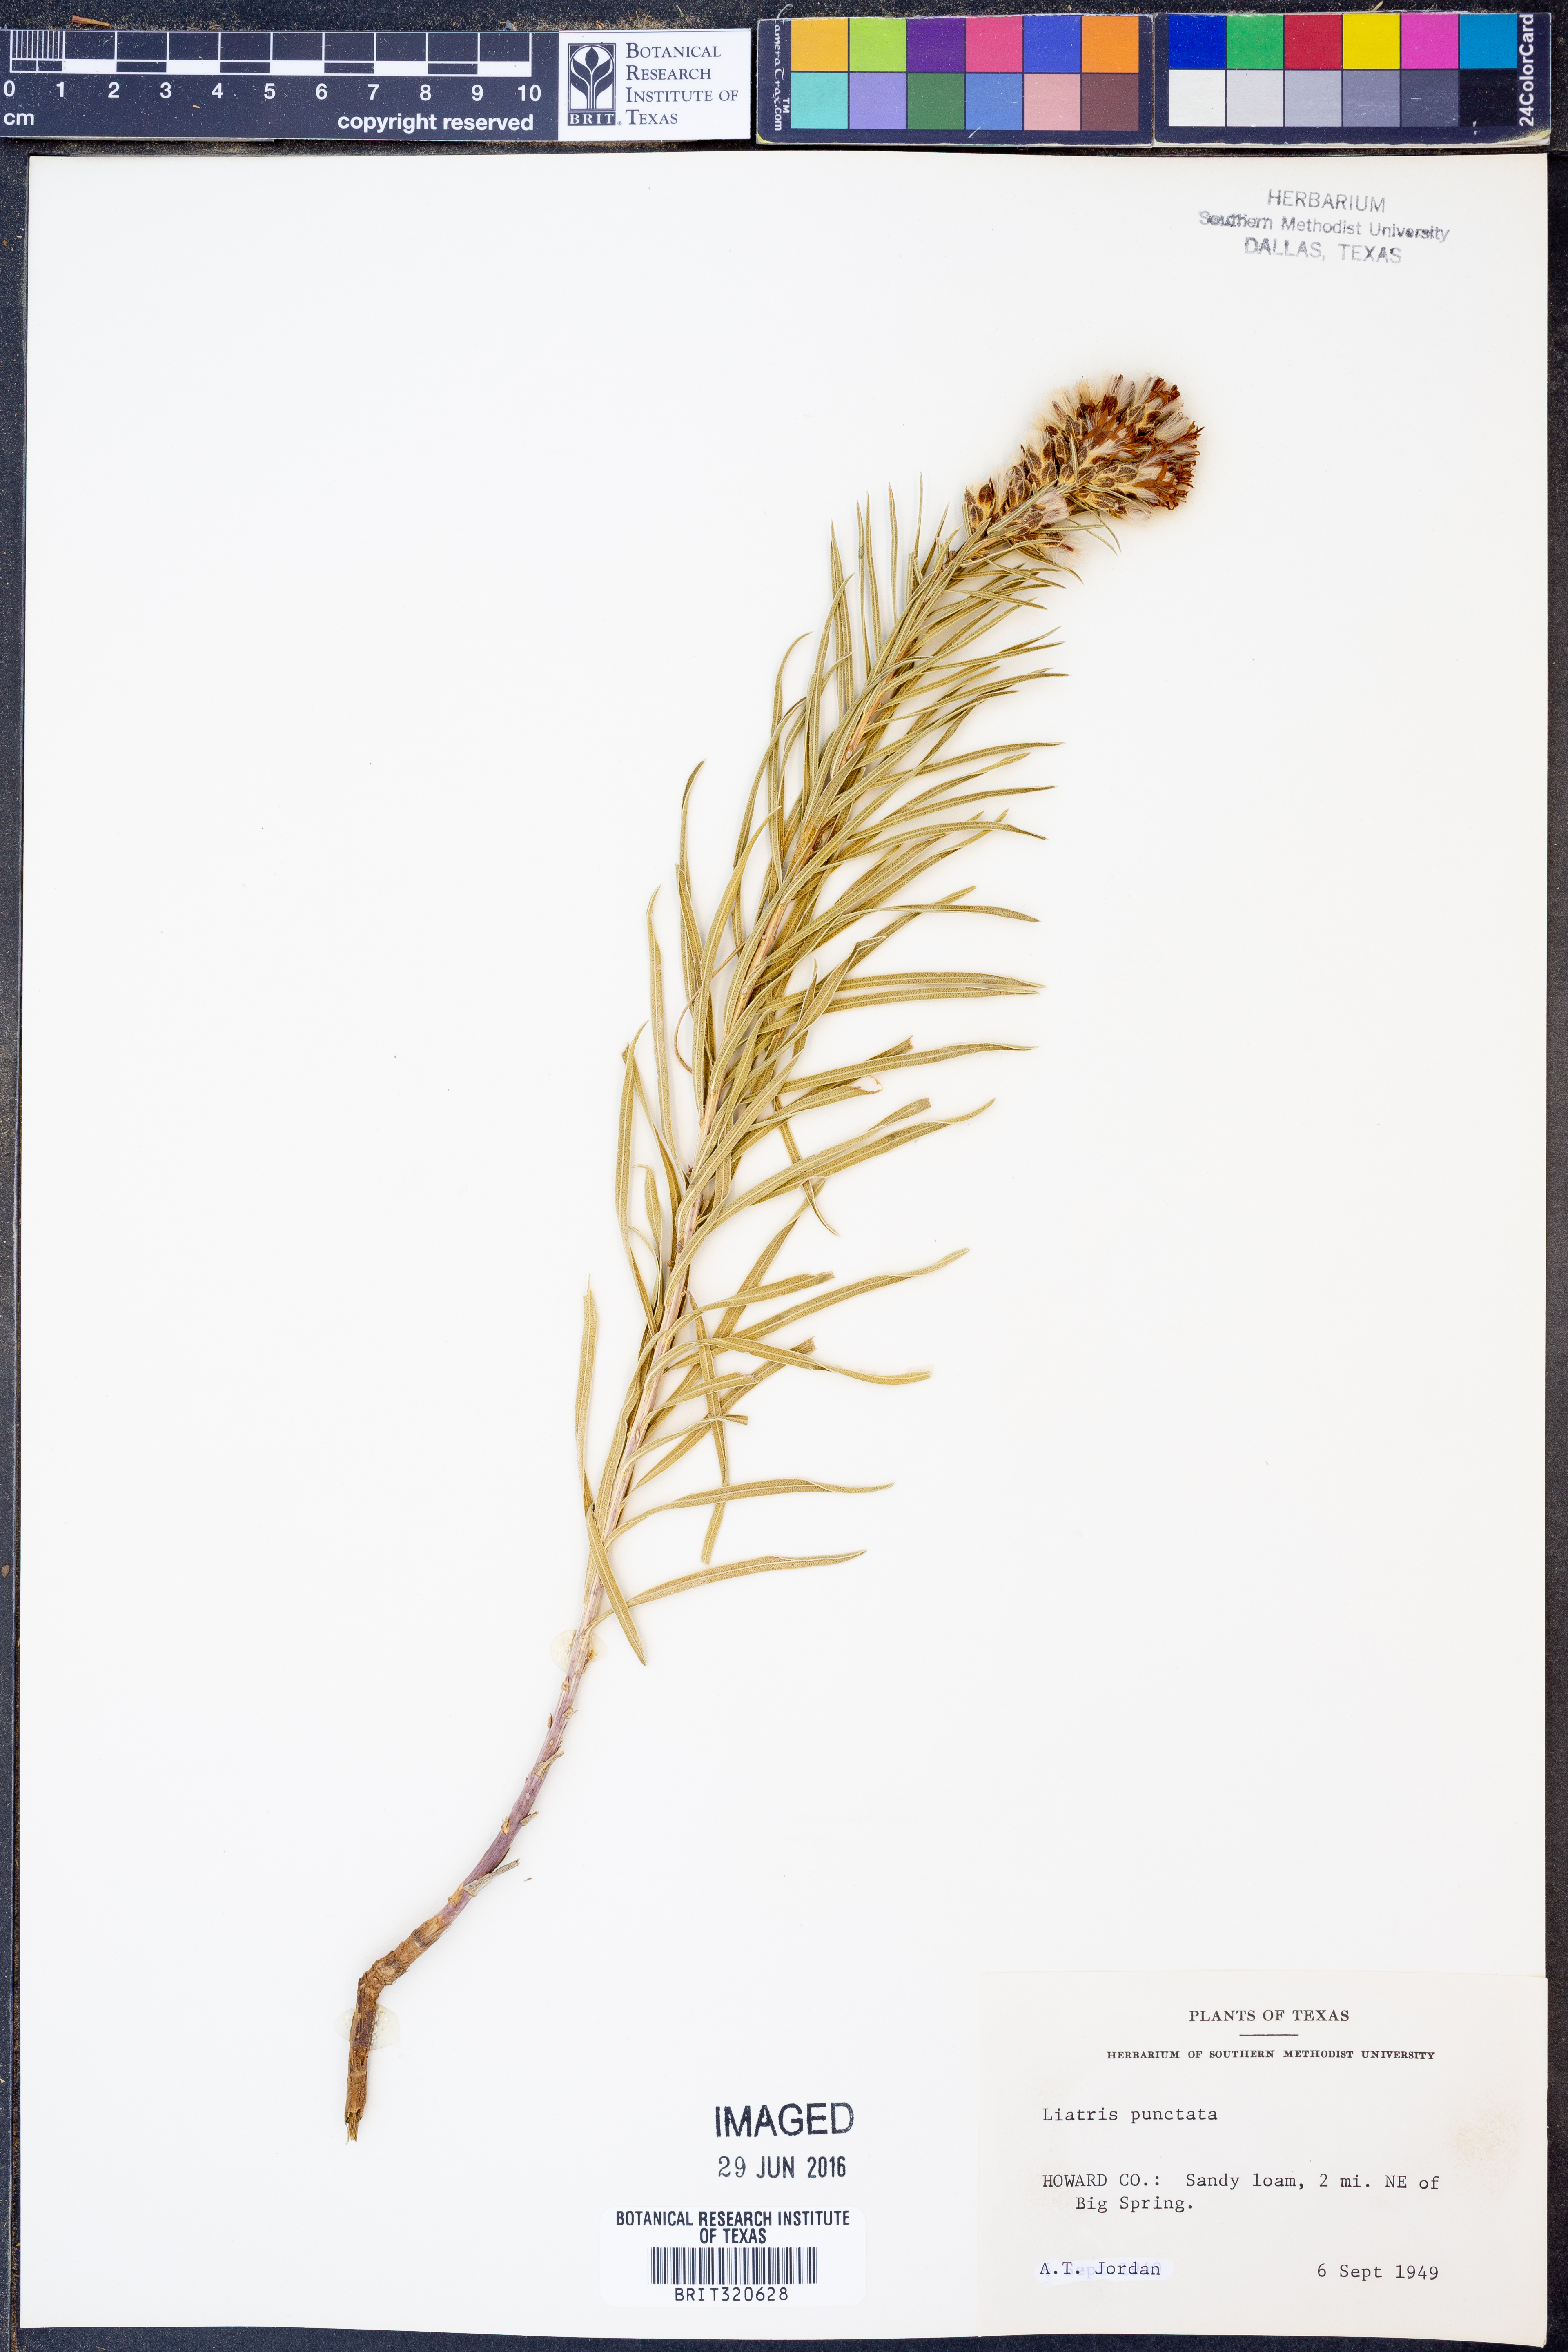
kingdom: Plantae
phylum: Tracheophyta
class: Magnoliopsida
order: Asterales
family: Asteraceae
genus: Liatris
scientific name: Liatris punctata
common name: Dotted gayfeather
